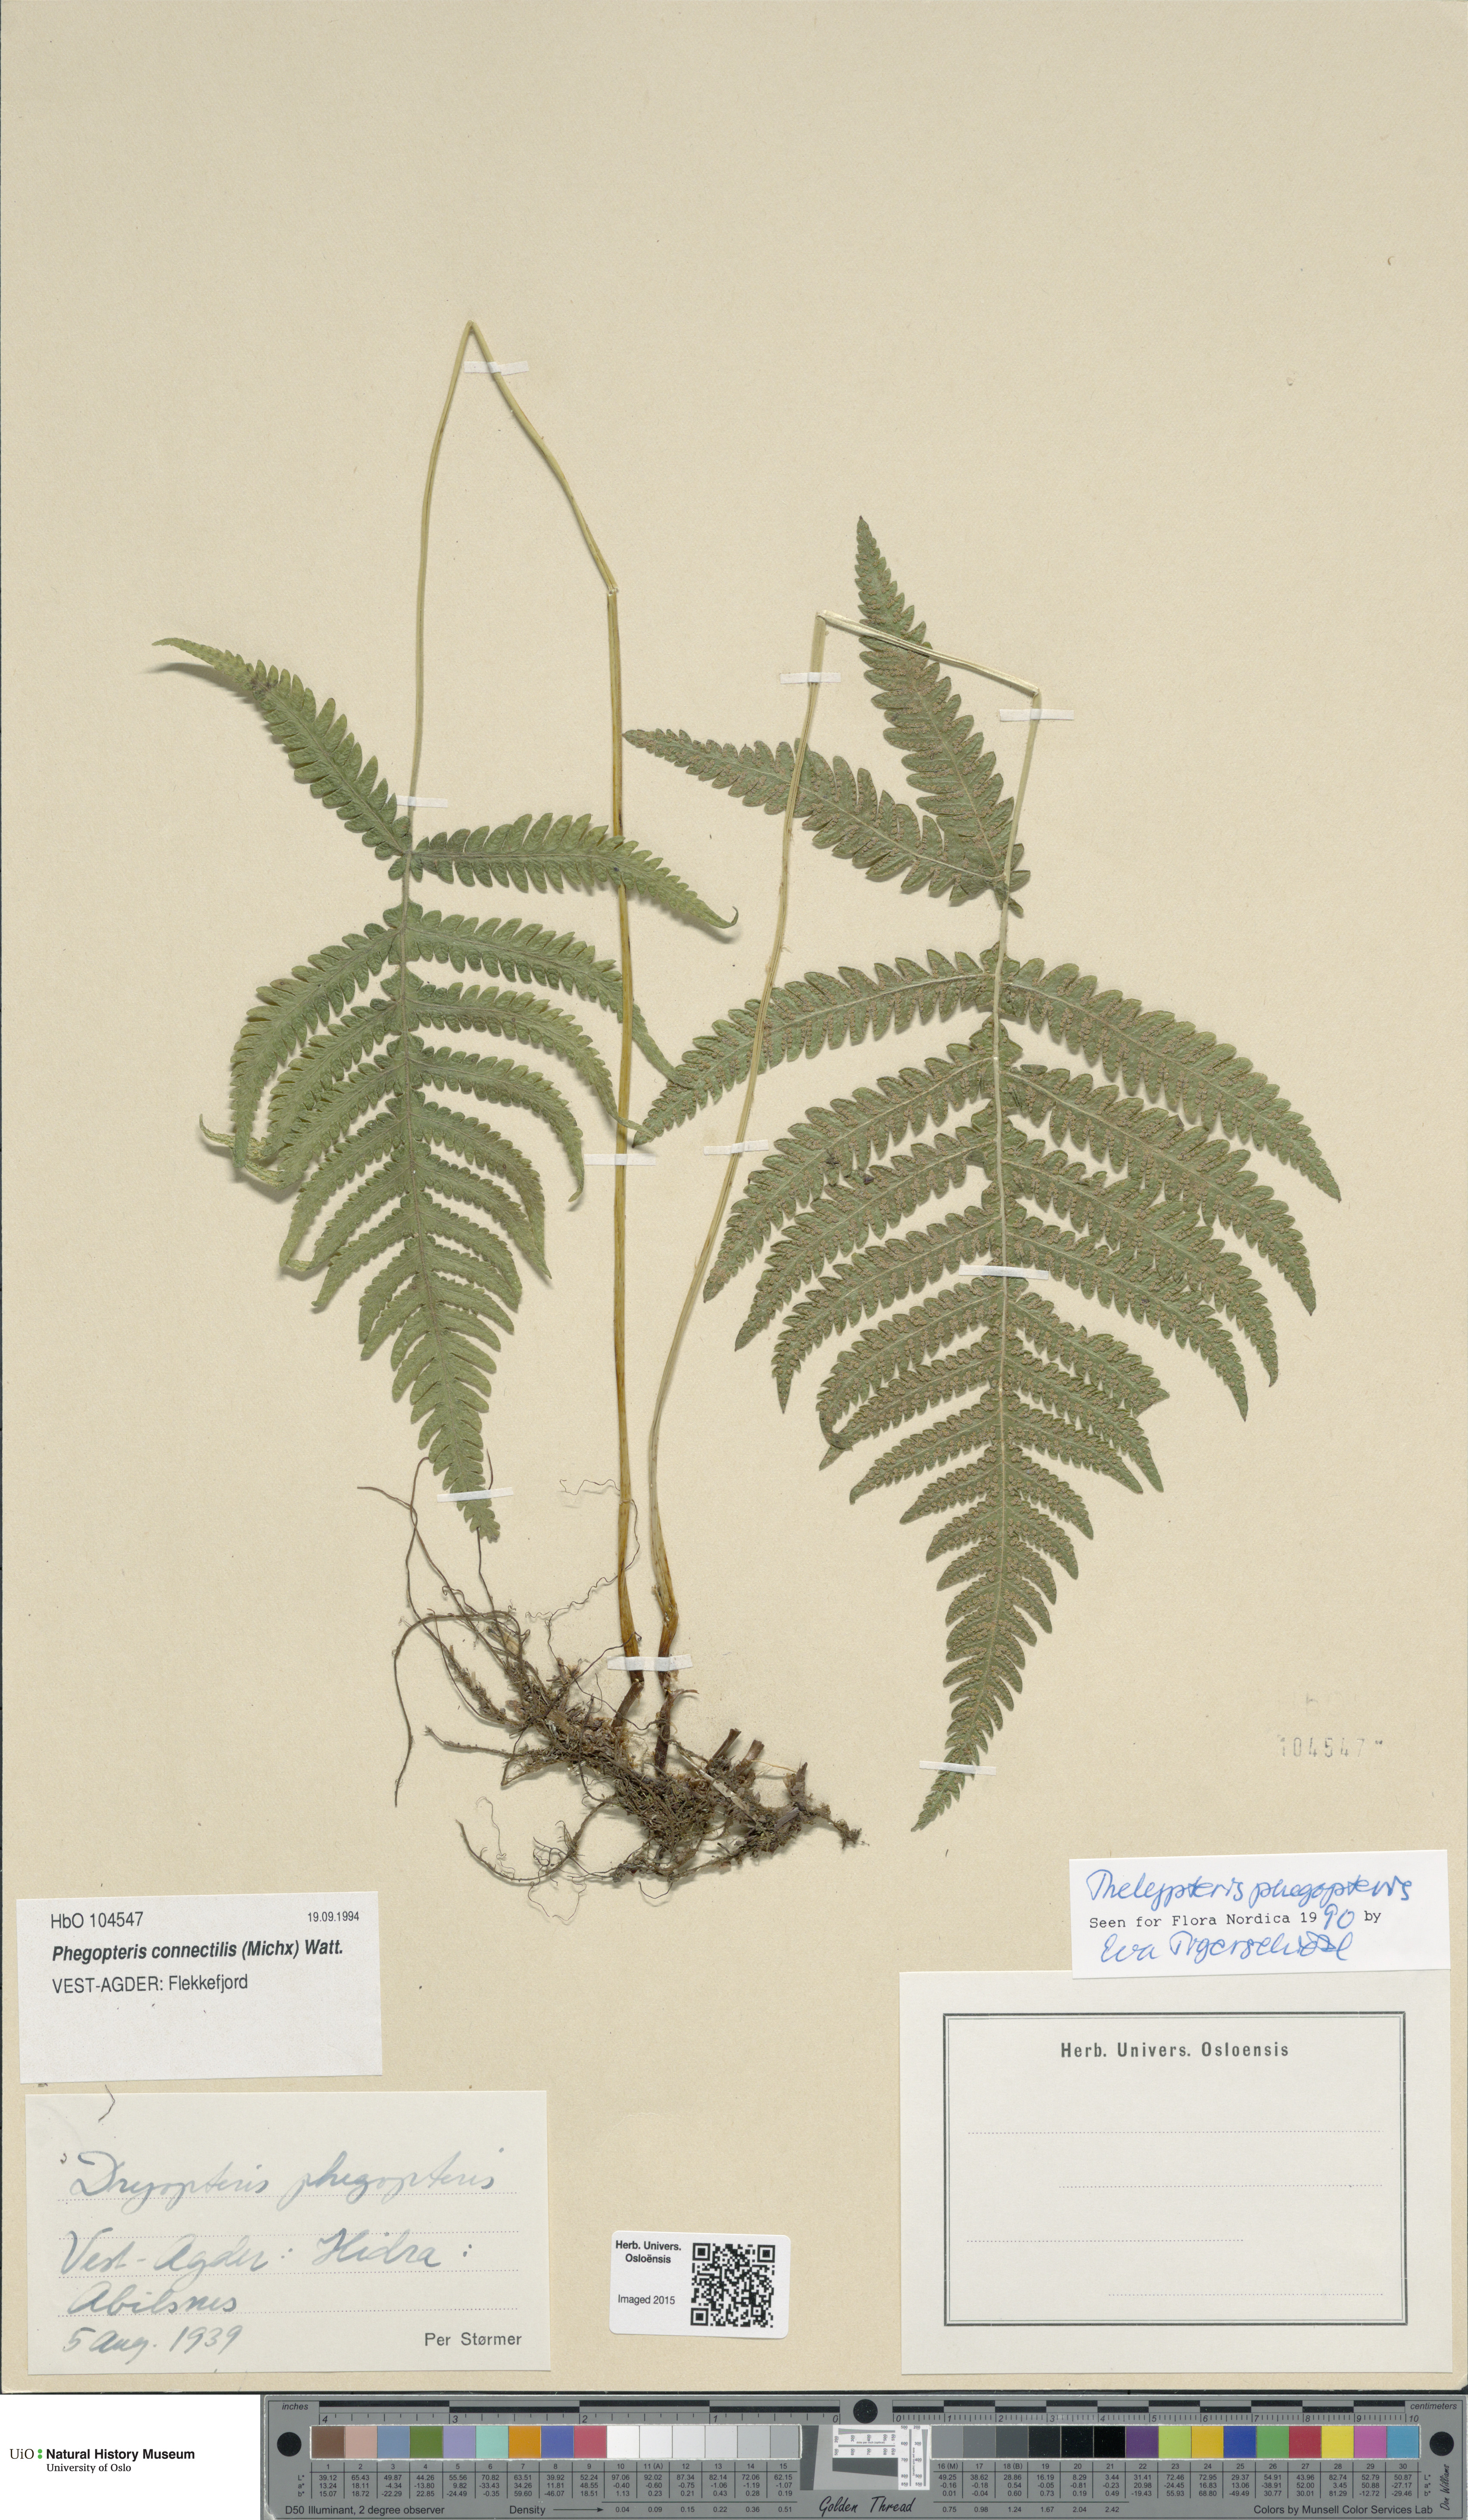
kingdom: Plantae
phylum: Tracheophyta
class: Polypodiopsida
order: Polypodiales
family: Thelypteridaceae
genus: Phegopteris
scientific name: Phegopteris connectilis
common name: Beech fern
